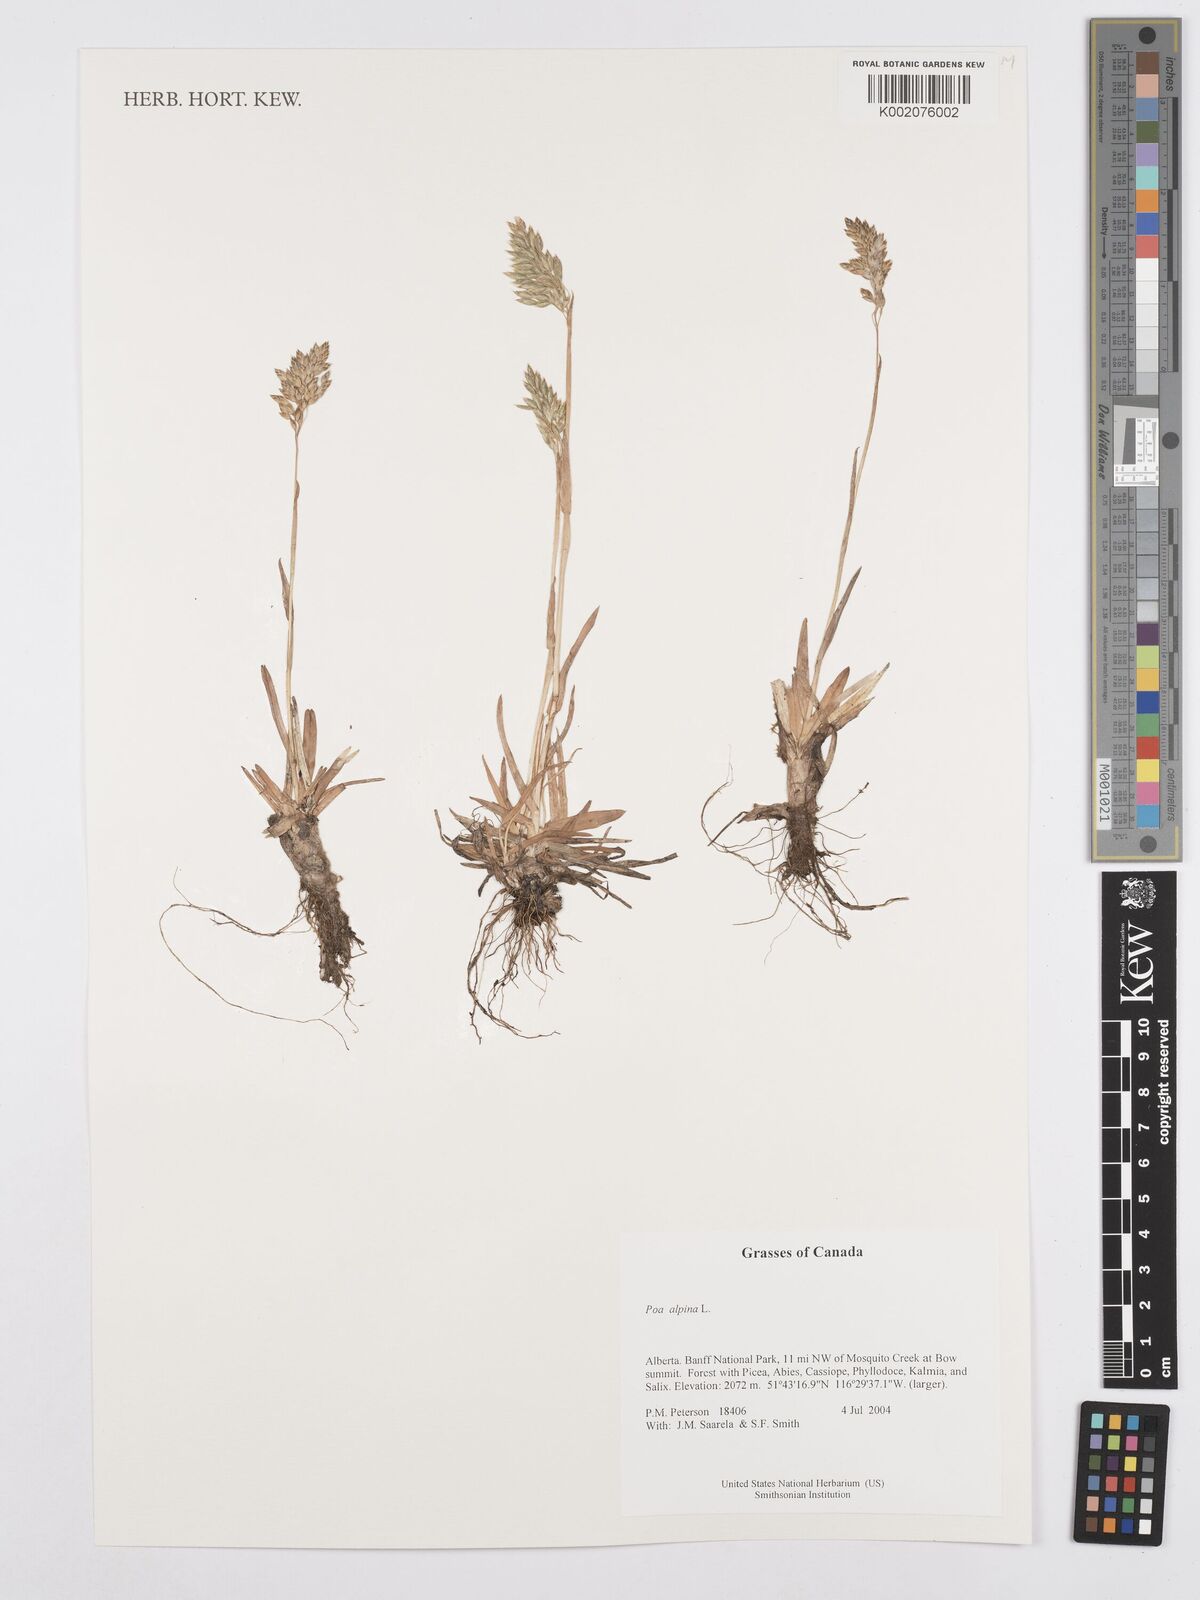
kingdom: Plantae
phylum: Tracheophyta
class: Liliopsida
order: Poales
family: Poaceae
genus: Poa
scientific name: Poa alpina
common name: Alpine bluegrass
